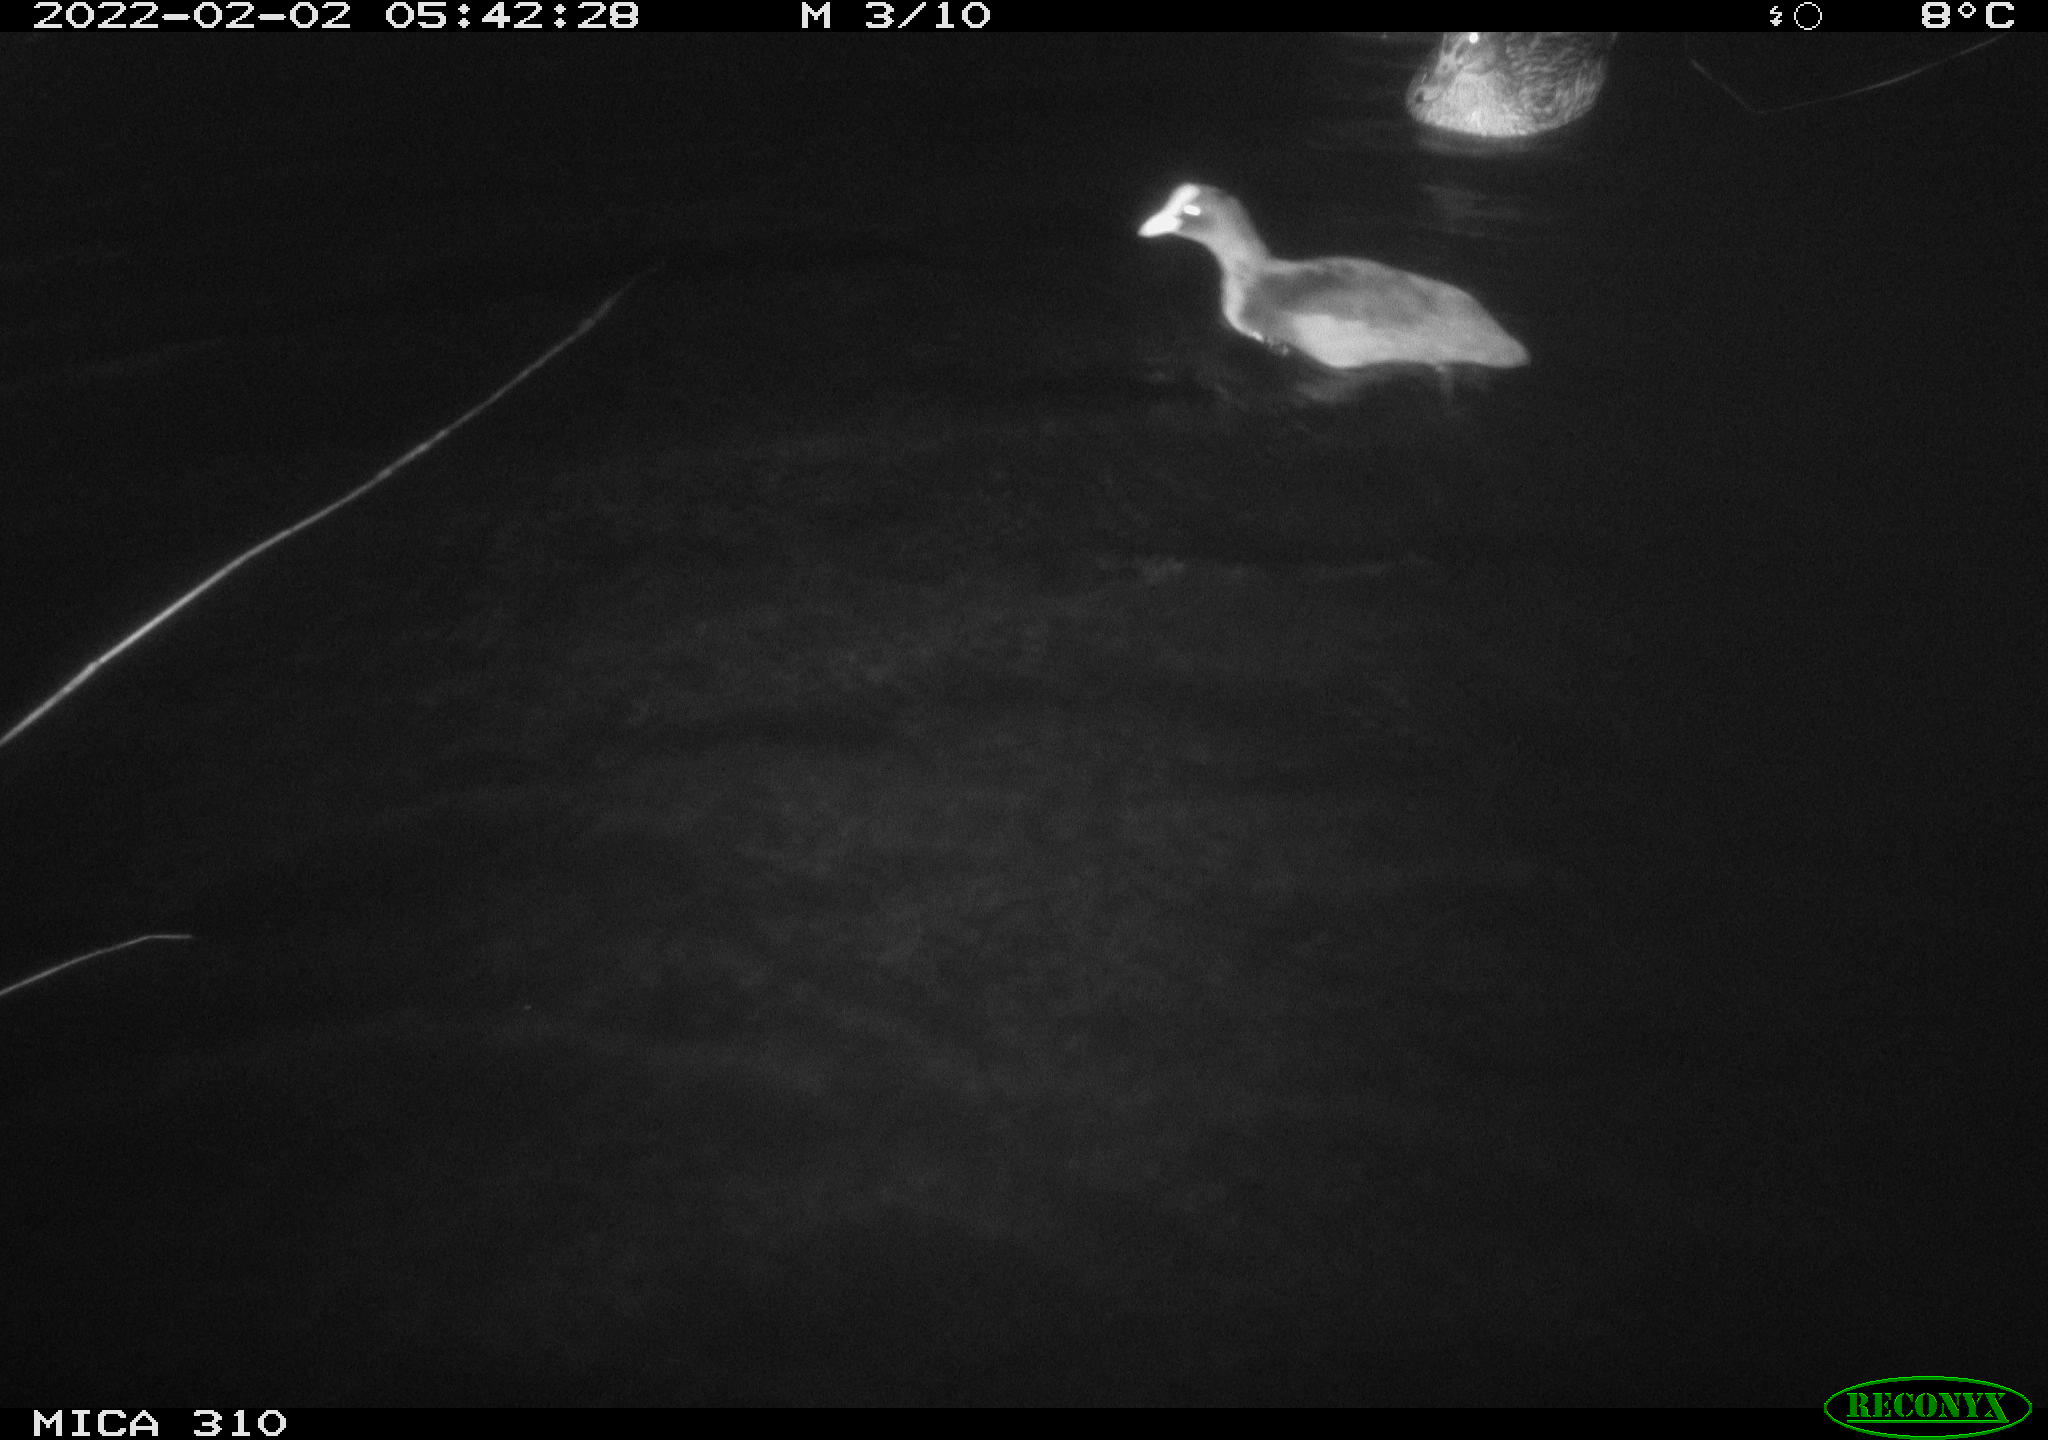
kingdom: Animalia
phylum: Chordata
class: Aves
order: Anseriformes
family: Anatidae
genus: Anas
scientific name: Anas
